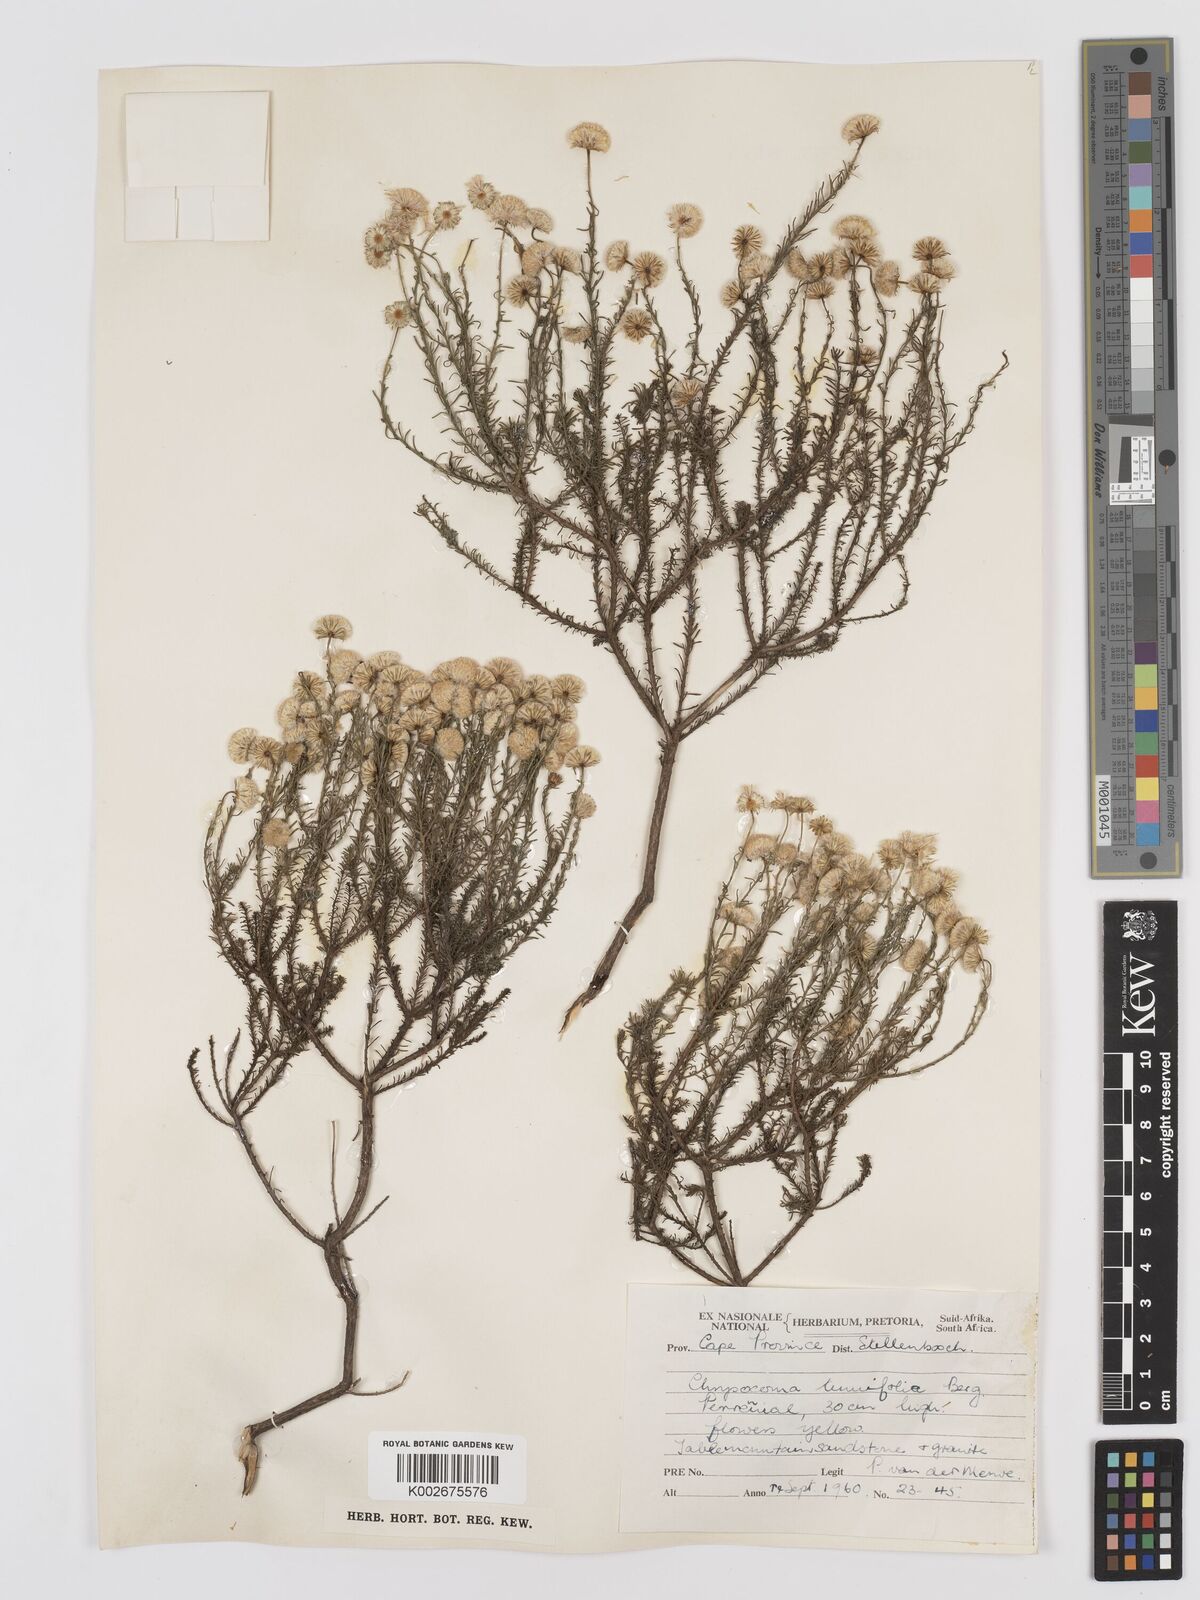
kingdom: Plantae
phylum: Tracheophyta
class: Magnoliopsida
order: Asterales
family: Asteraceae
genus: Chrysocoma
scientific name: Chrysocoma ciliata
